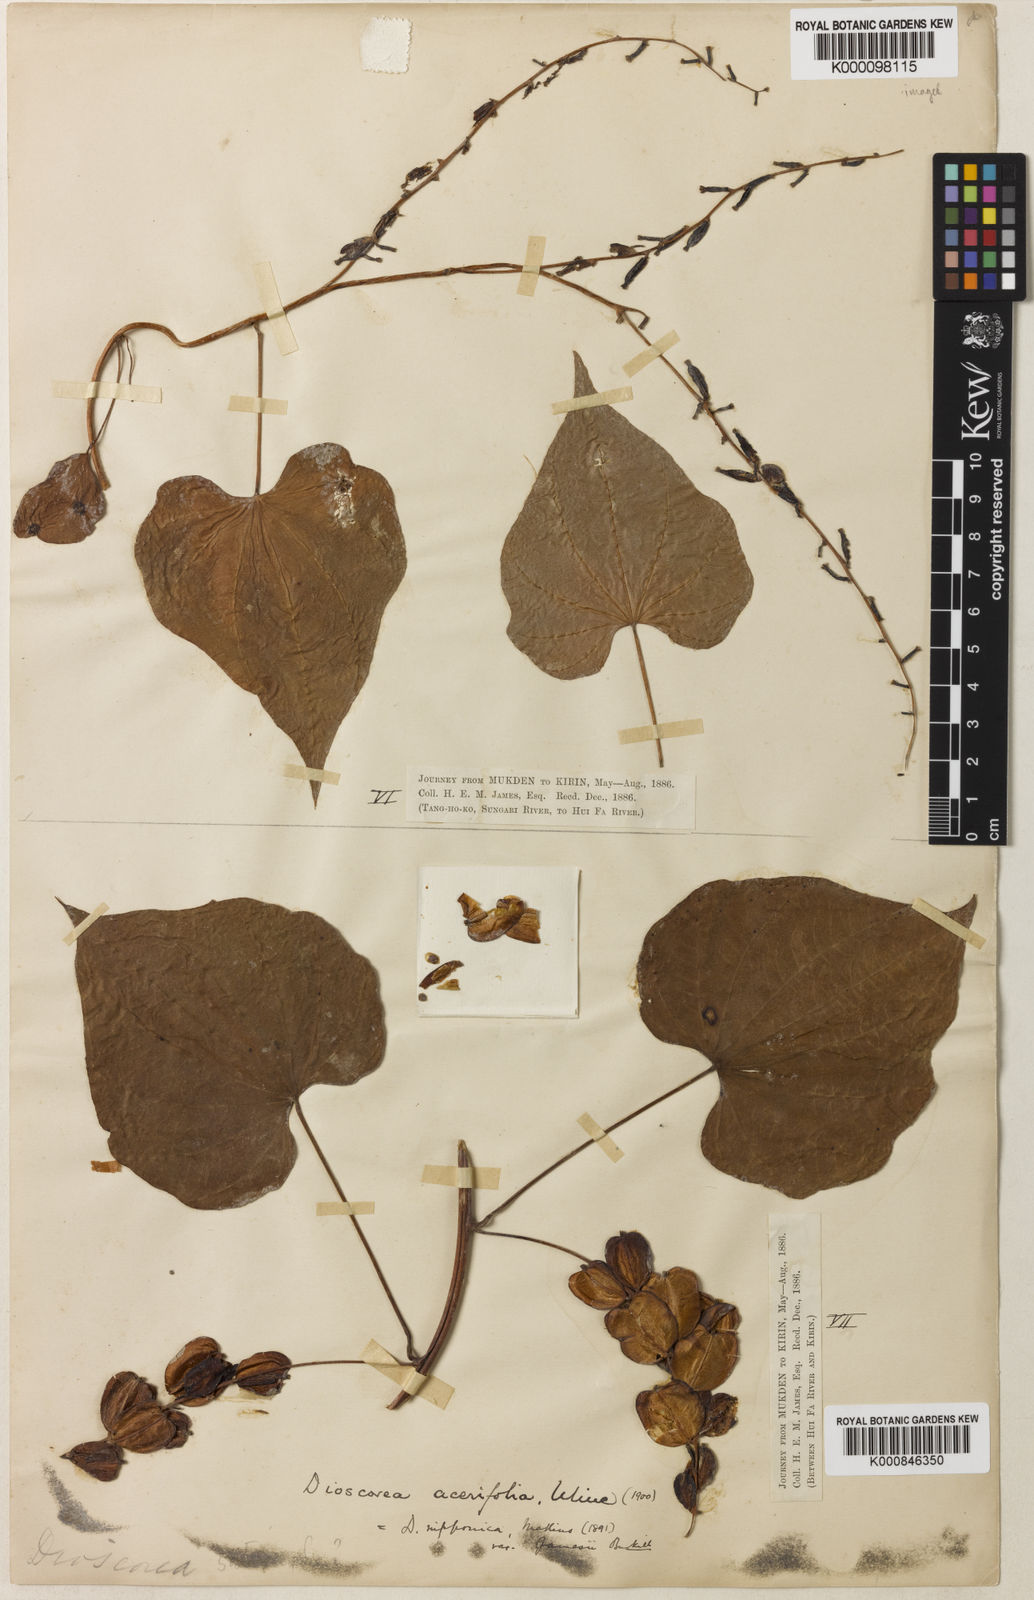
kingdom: Plantae
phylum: Tracheophyta
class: Liliopsida
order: Dioscoreales
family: Dioscoreaceae
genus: Dioscorea
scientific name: Dioscorea nipponica
